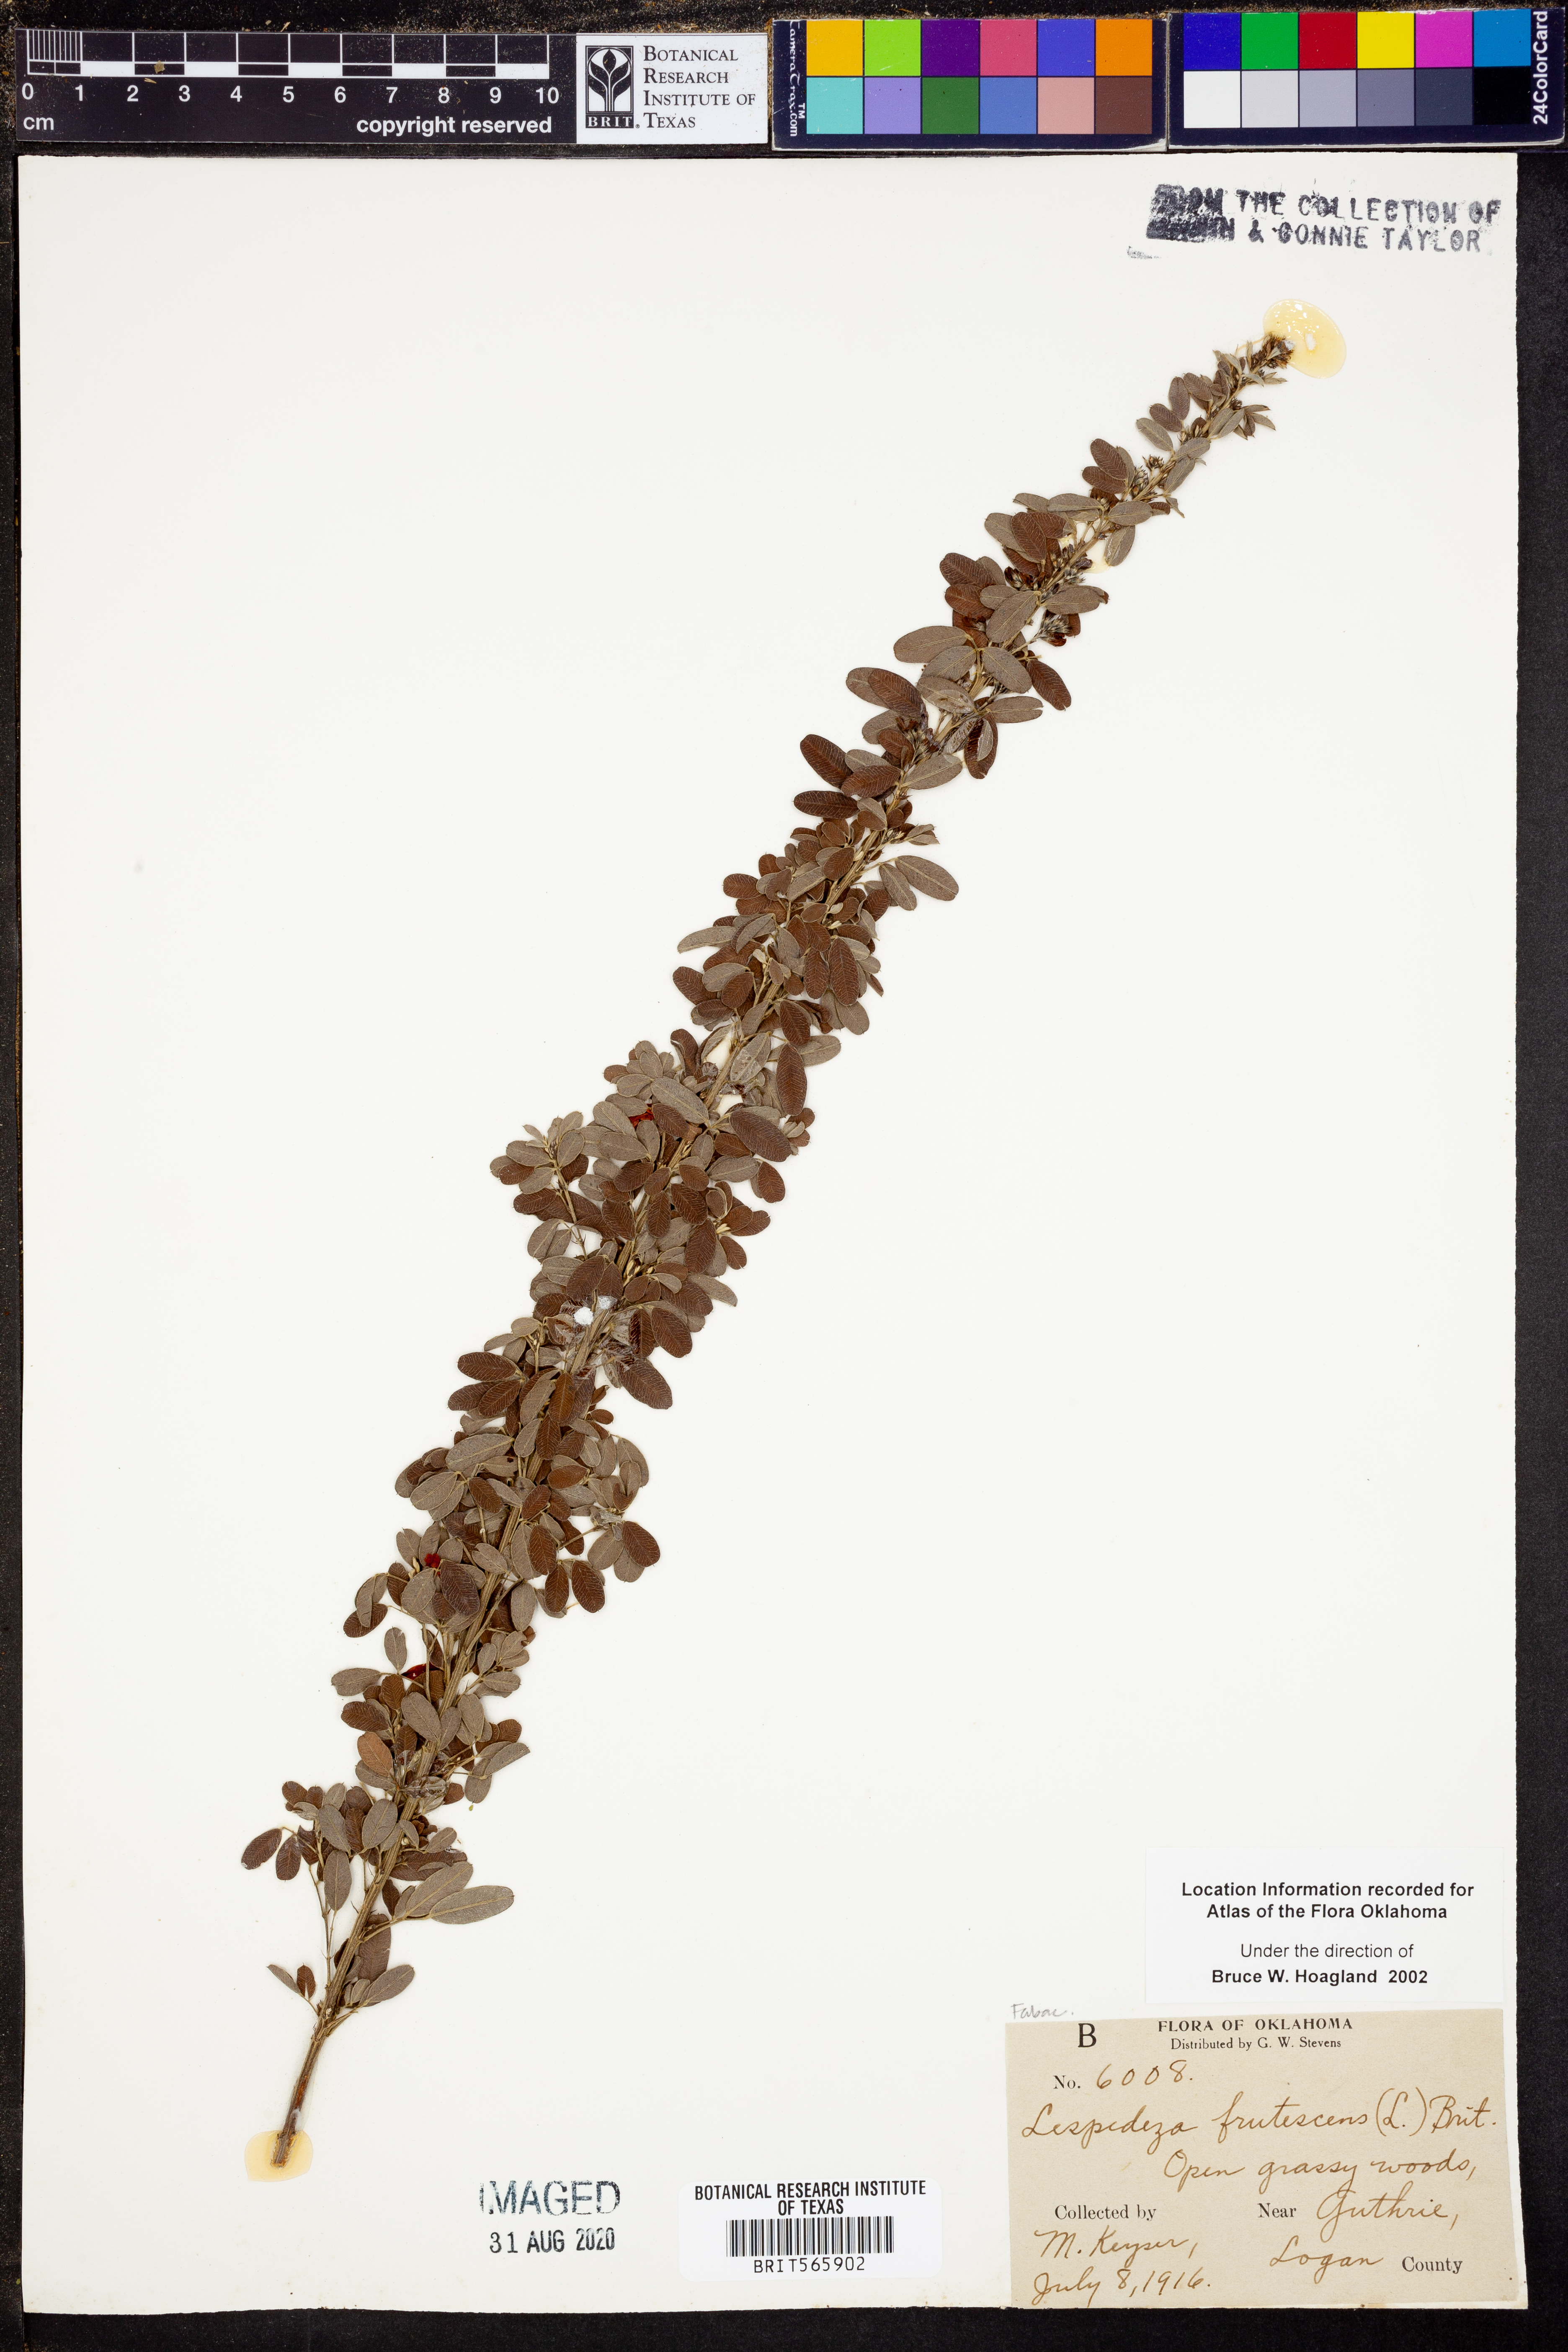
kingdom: Plantae
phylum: Tracheophyta
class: Magnoliopsida
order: Fabales
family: Fabaceae
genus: Lespedeza
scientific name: Lespedeza violacea
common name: Wand bush-clover
